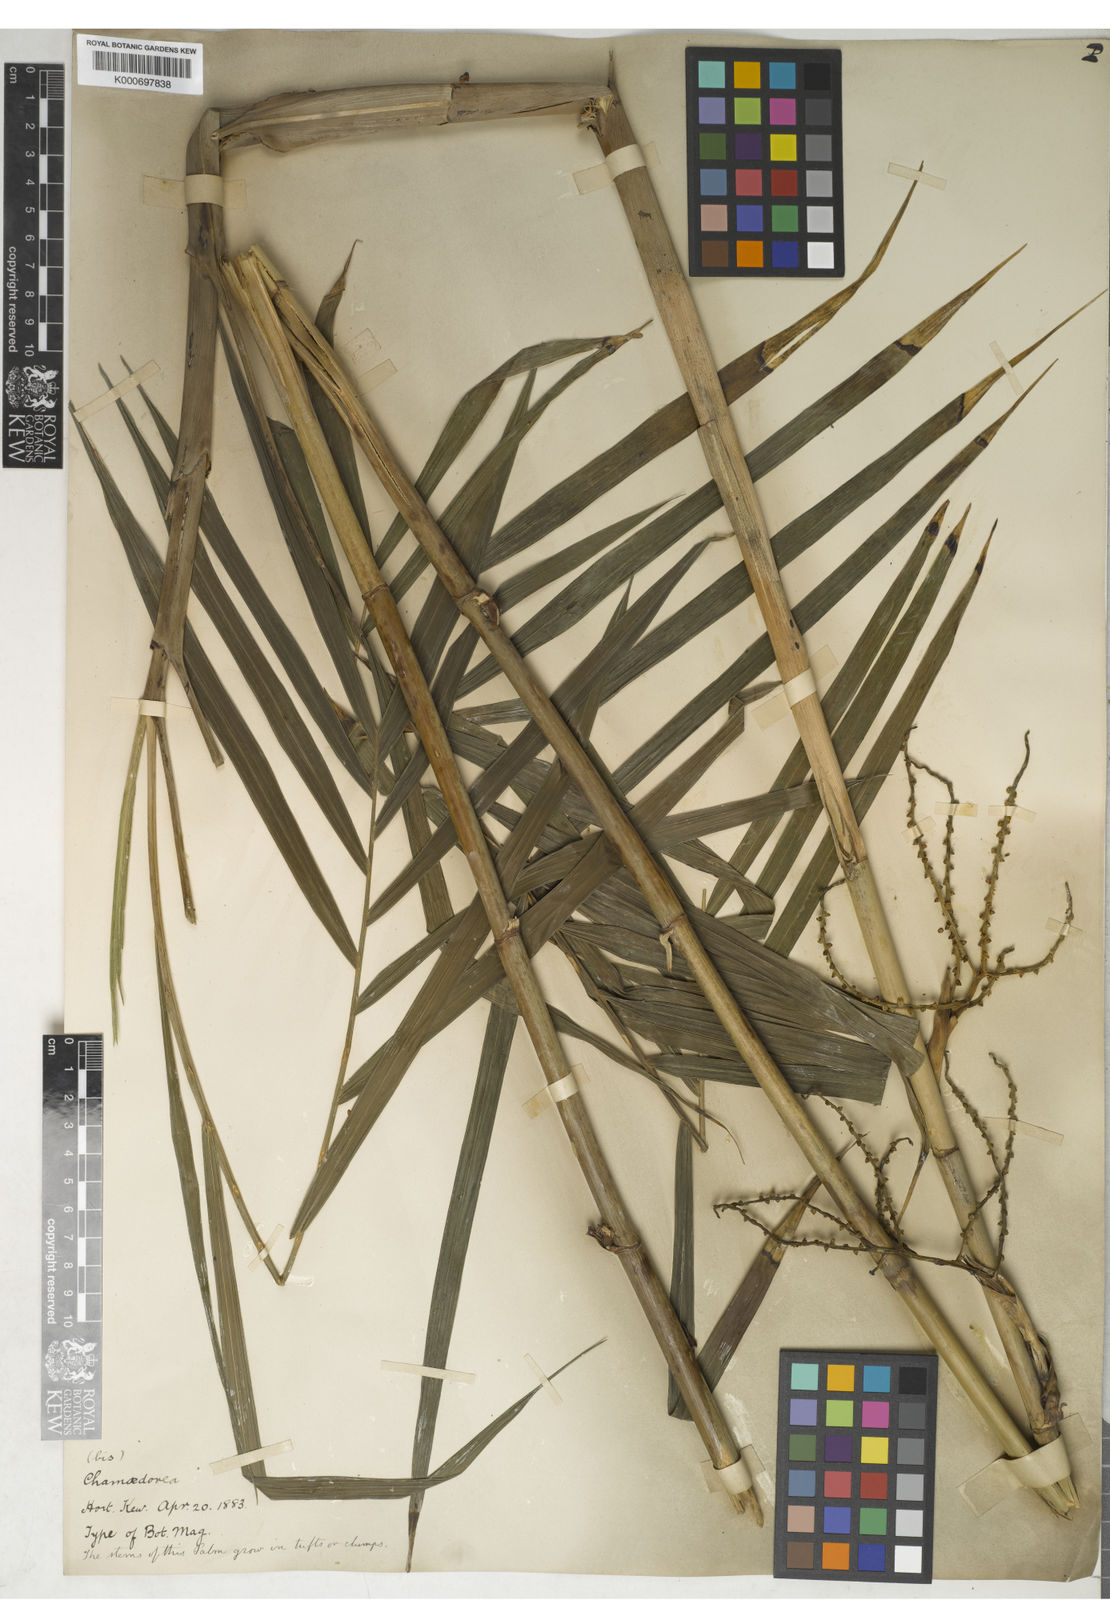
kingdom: Plantae
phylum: Tracheophyta
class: Liliopsida
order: Arecales
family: Arecaceae
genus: Chamaedorea
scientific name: Chamaedorea
